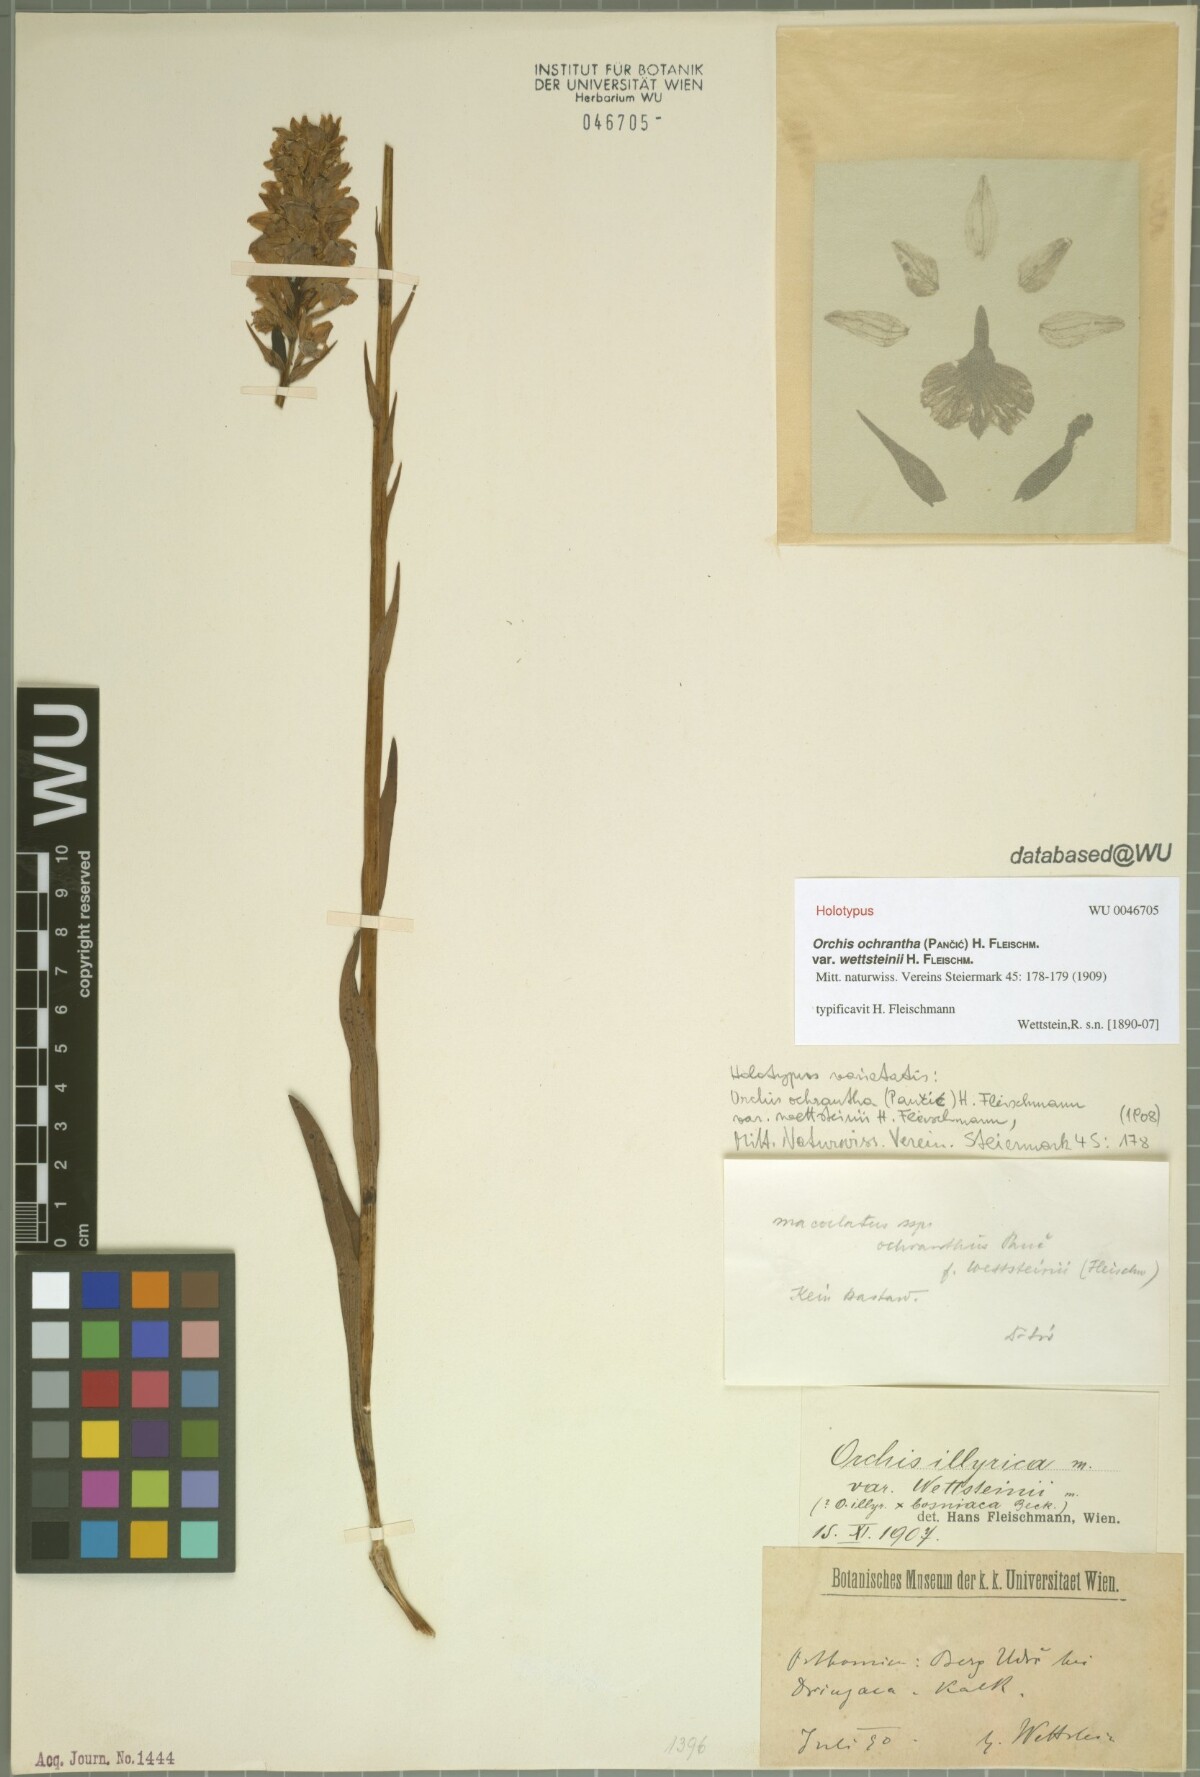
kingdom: Plantae
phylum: Tracheophyta
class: Liliopsida
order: Asparagales
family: Orchidaceae
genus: Dactylorhiza
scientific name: Dactylorhiza maculata
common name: Heath spotted-orchid
